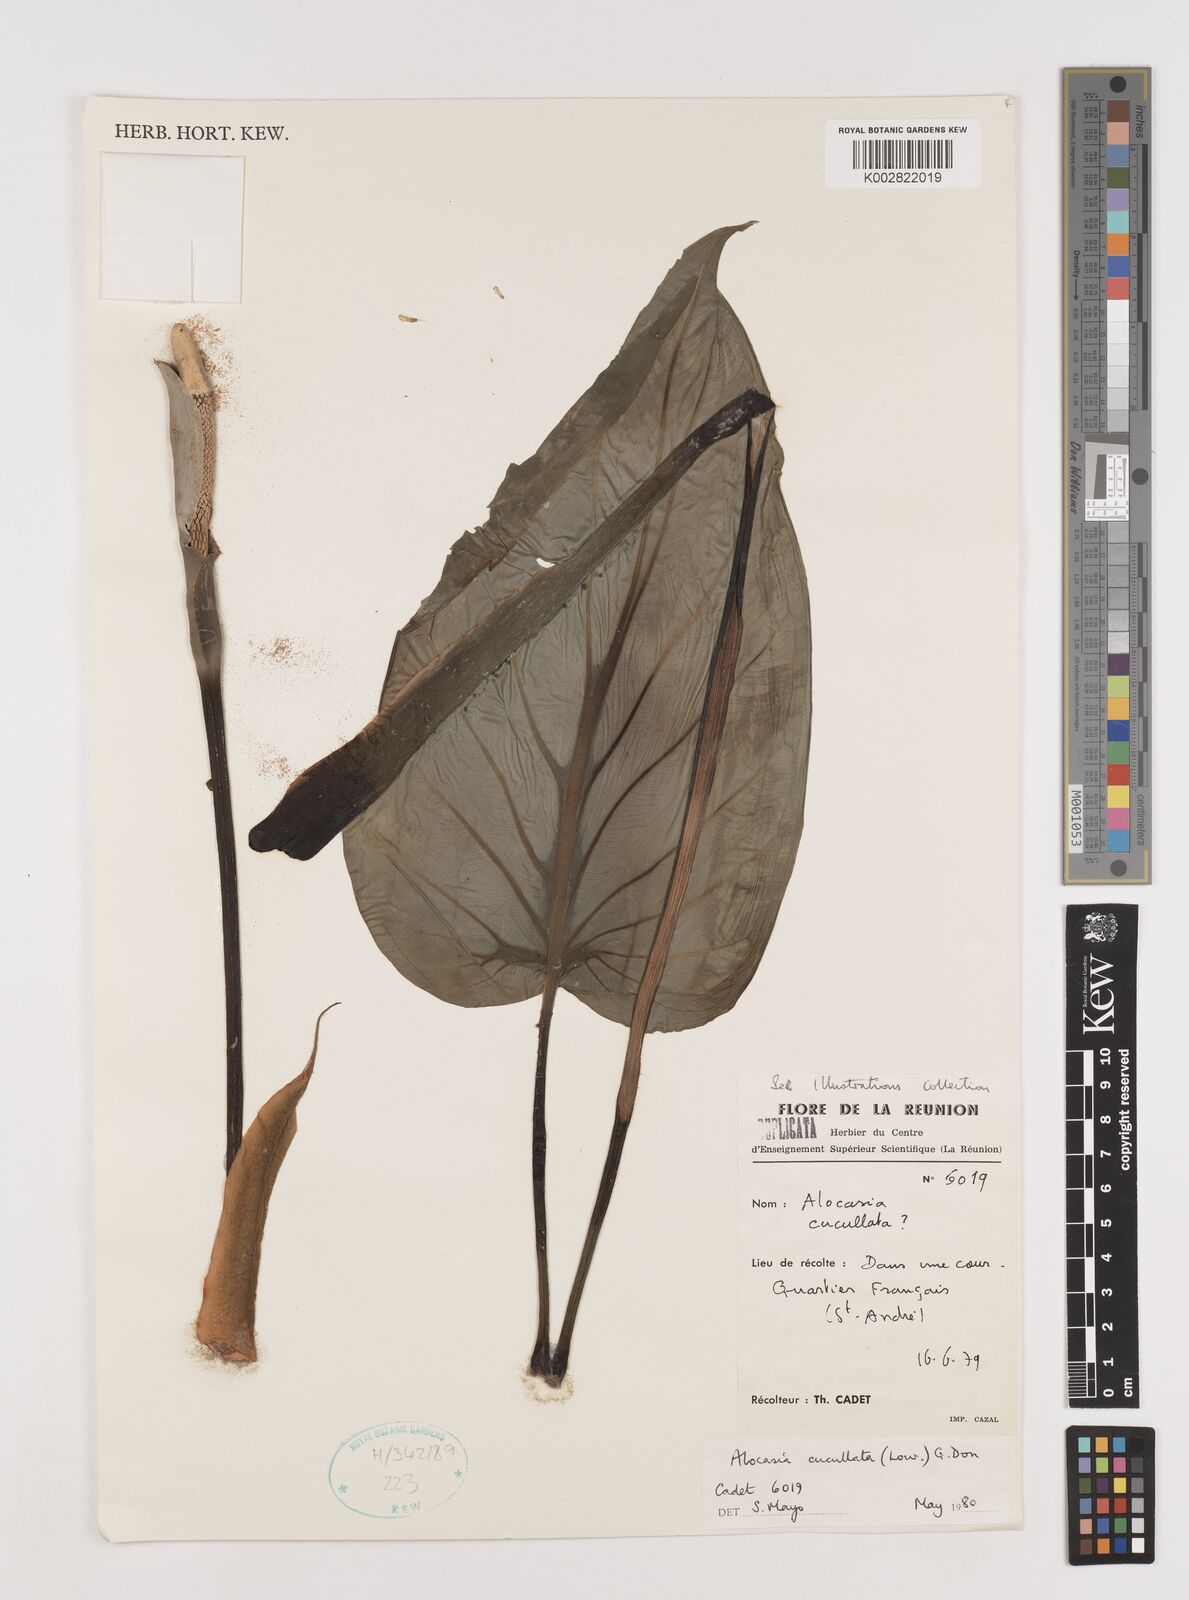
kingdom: Plantae
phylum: Tracheophyta
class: Liliopsida
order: Alismatales
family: Araceae
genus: Alocasia
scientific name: Alocasia cucullata
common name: Buddha's hand
